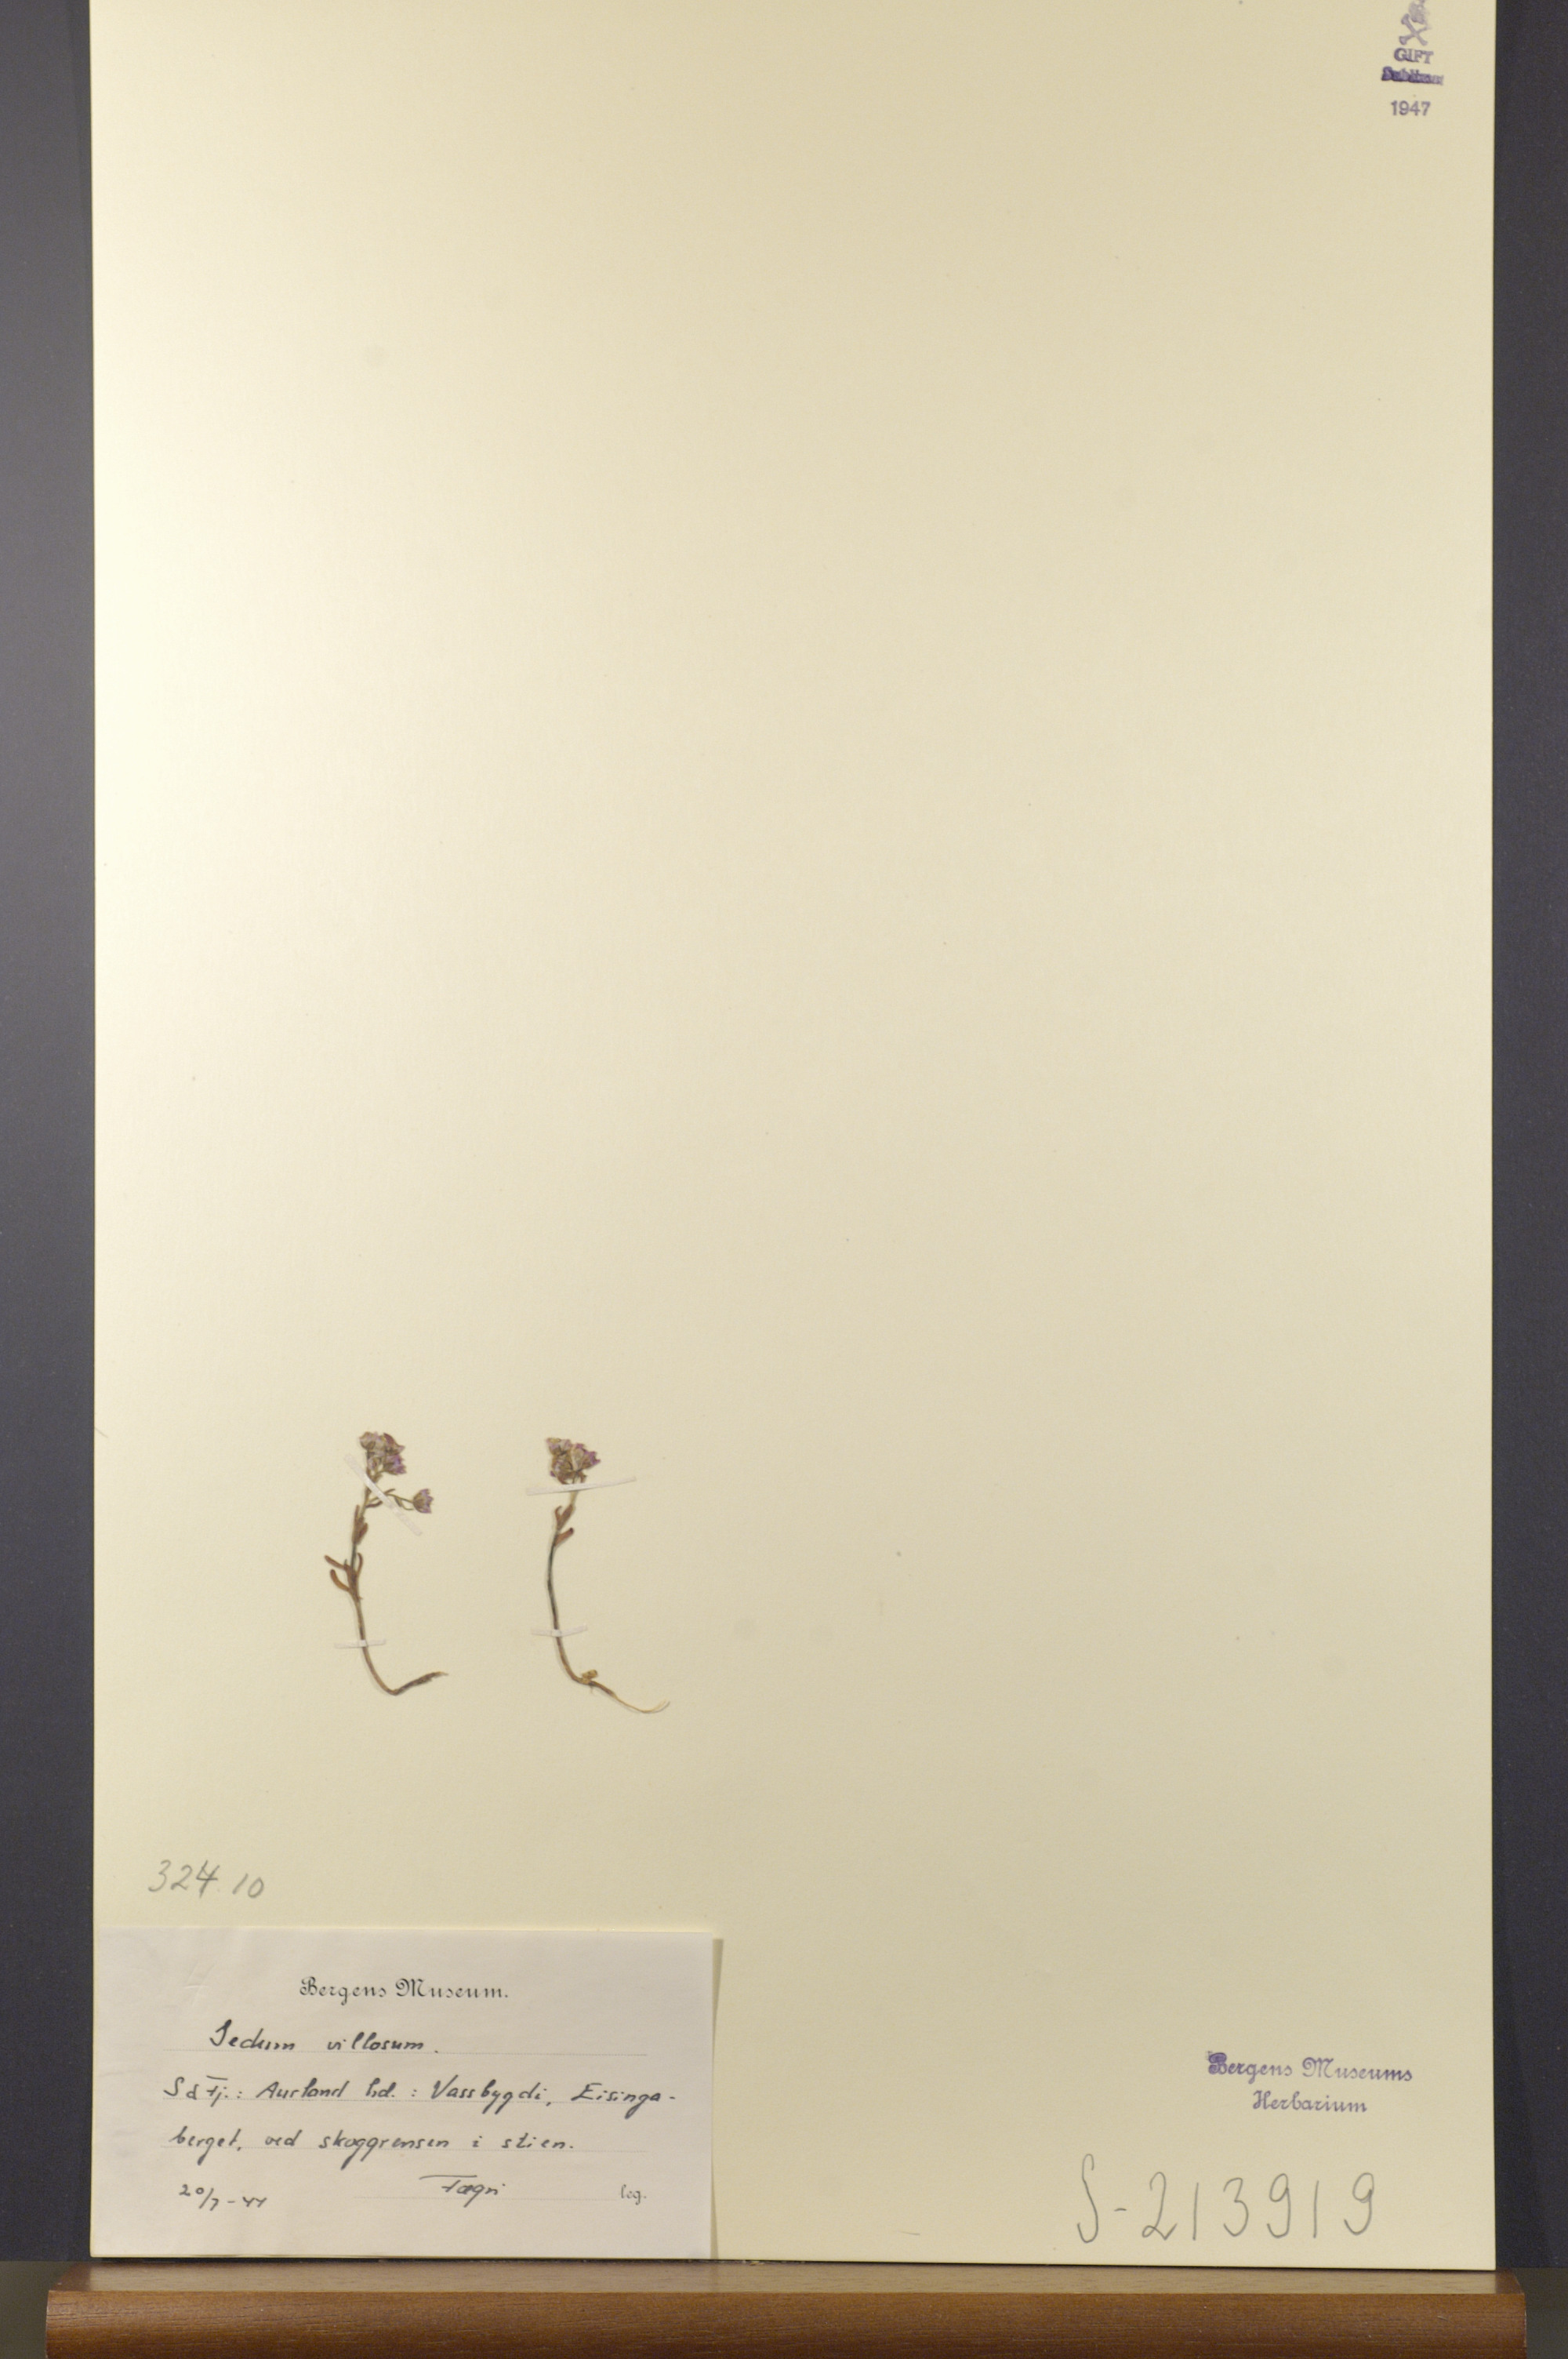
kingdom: Plantae
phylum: Tracheophyta
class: Magnoliopsida
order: Saxifragales
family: Crassulaceae
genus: Sedum
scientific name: Sedum villosum
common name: Hairy stonecrop
